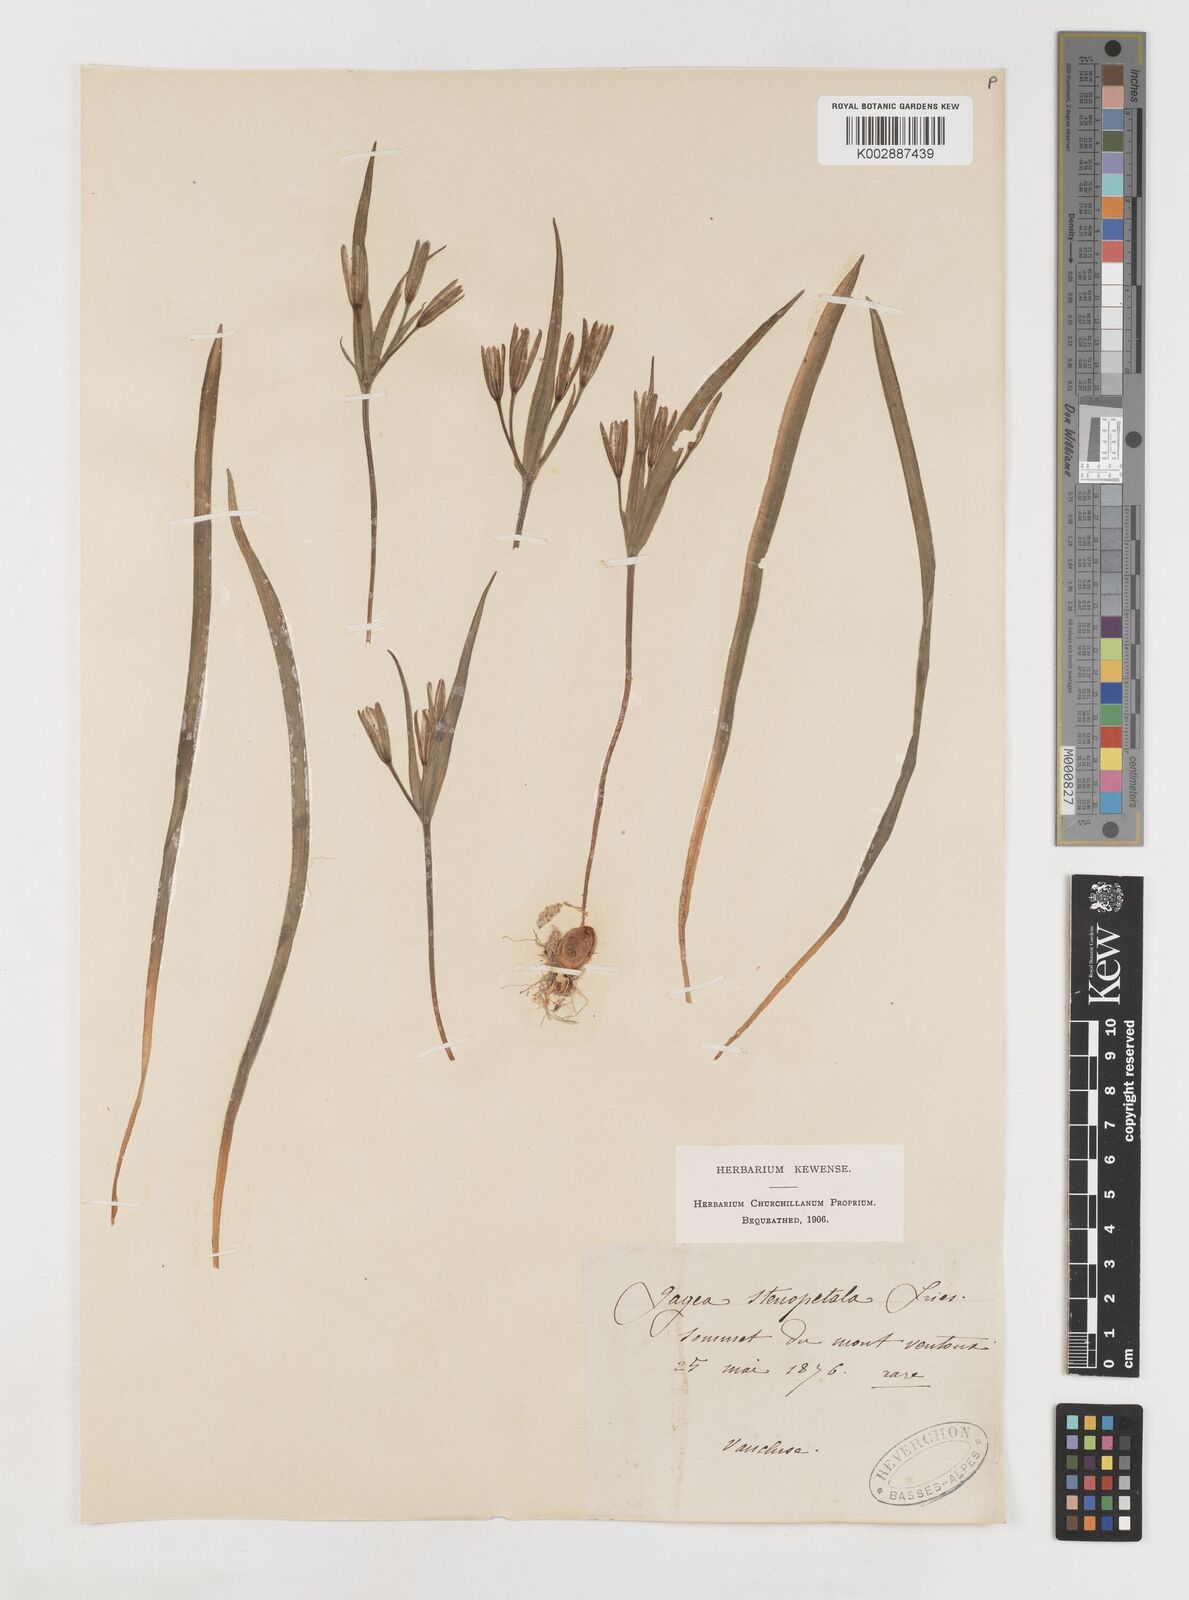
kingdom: Plantae
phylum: Tracheophyta
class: Liliopsida
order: Liliales
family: Liliaceae
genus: Gagea
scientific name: Gagea pratensis
